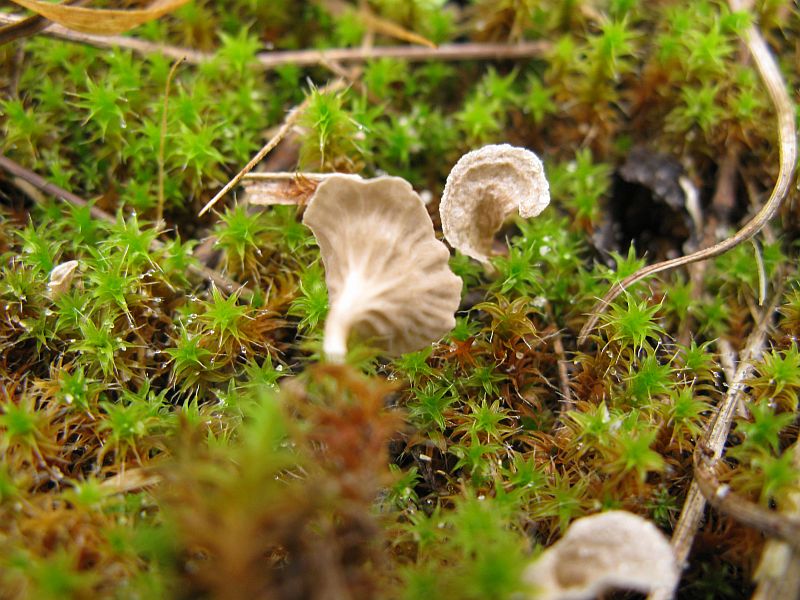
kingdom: Fungi
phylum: Basidiomycota
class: Agaricomycetes
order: Agaricales
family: Hygrophoraceae
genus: Arrhenia
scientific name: Arrhenia spathulata
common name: skæv fontænehat
